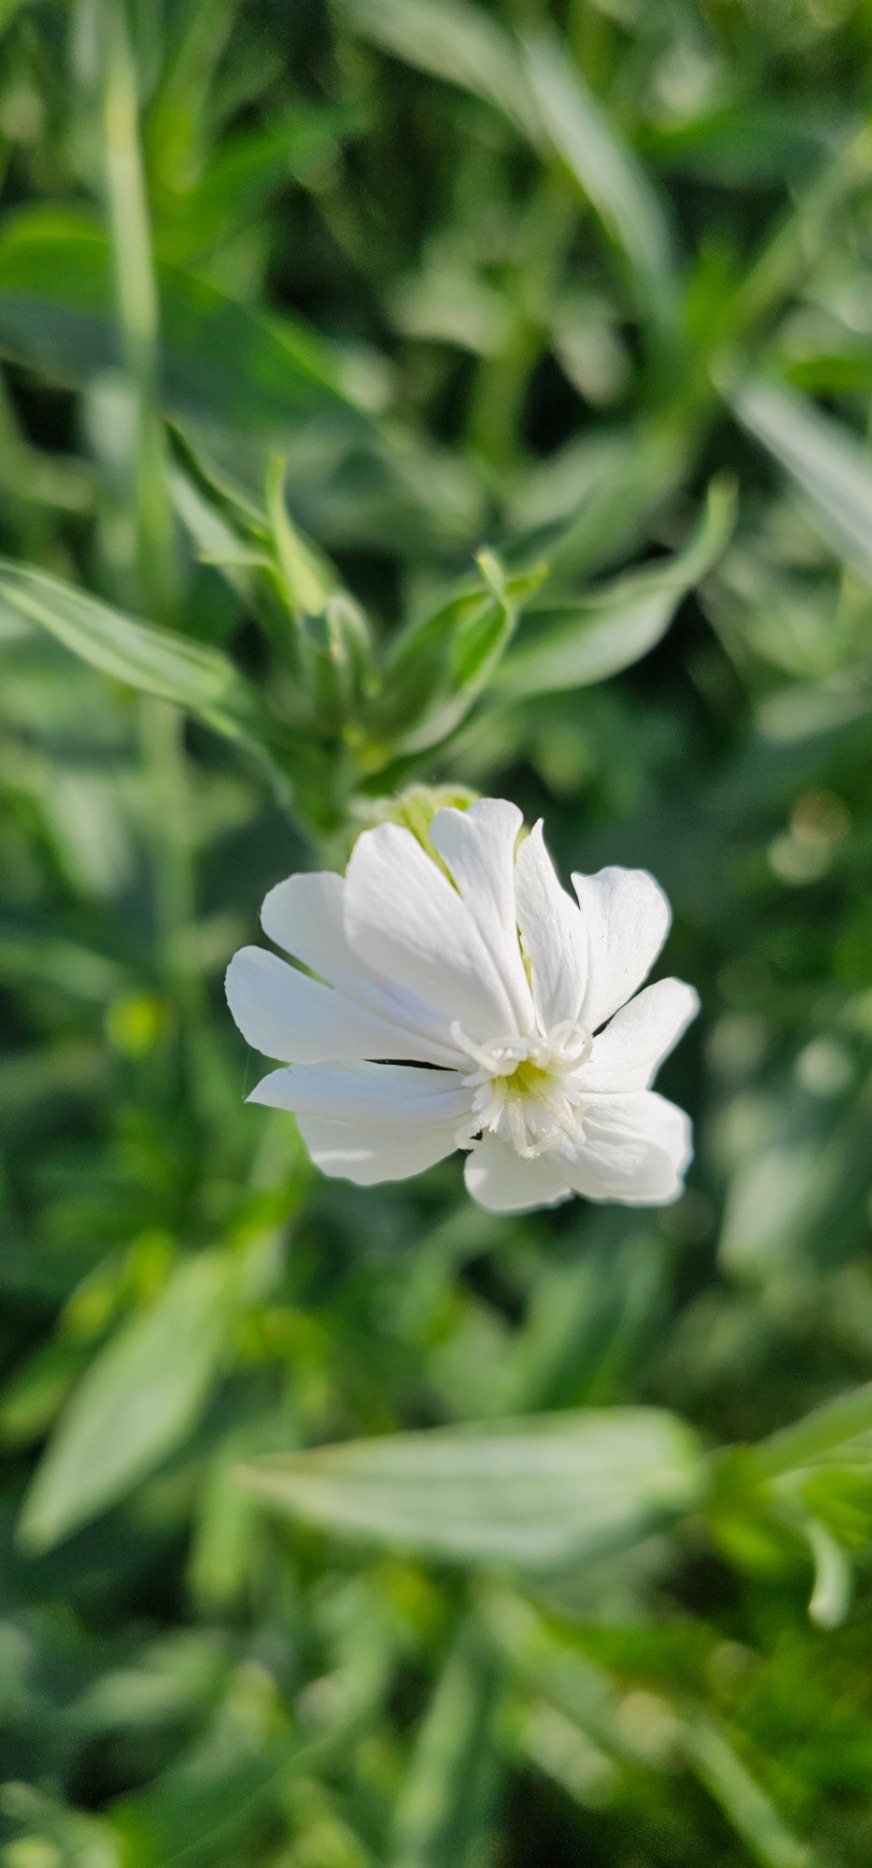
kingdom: Plantae
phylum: Tracheophyta
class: Magnoliopsida
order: Caryophyllales
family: Caryophyllaceae
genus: Silene
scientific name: Silene latifolia
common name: Aftenpragtstjerne
